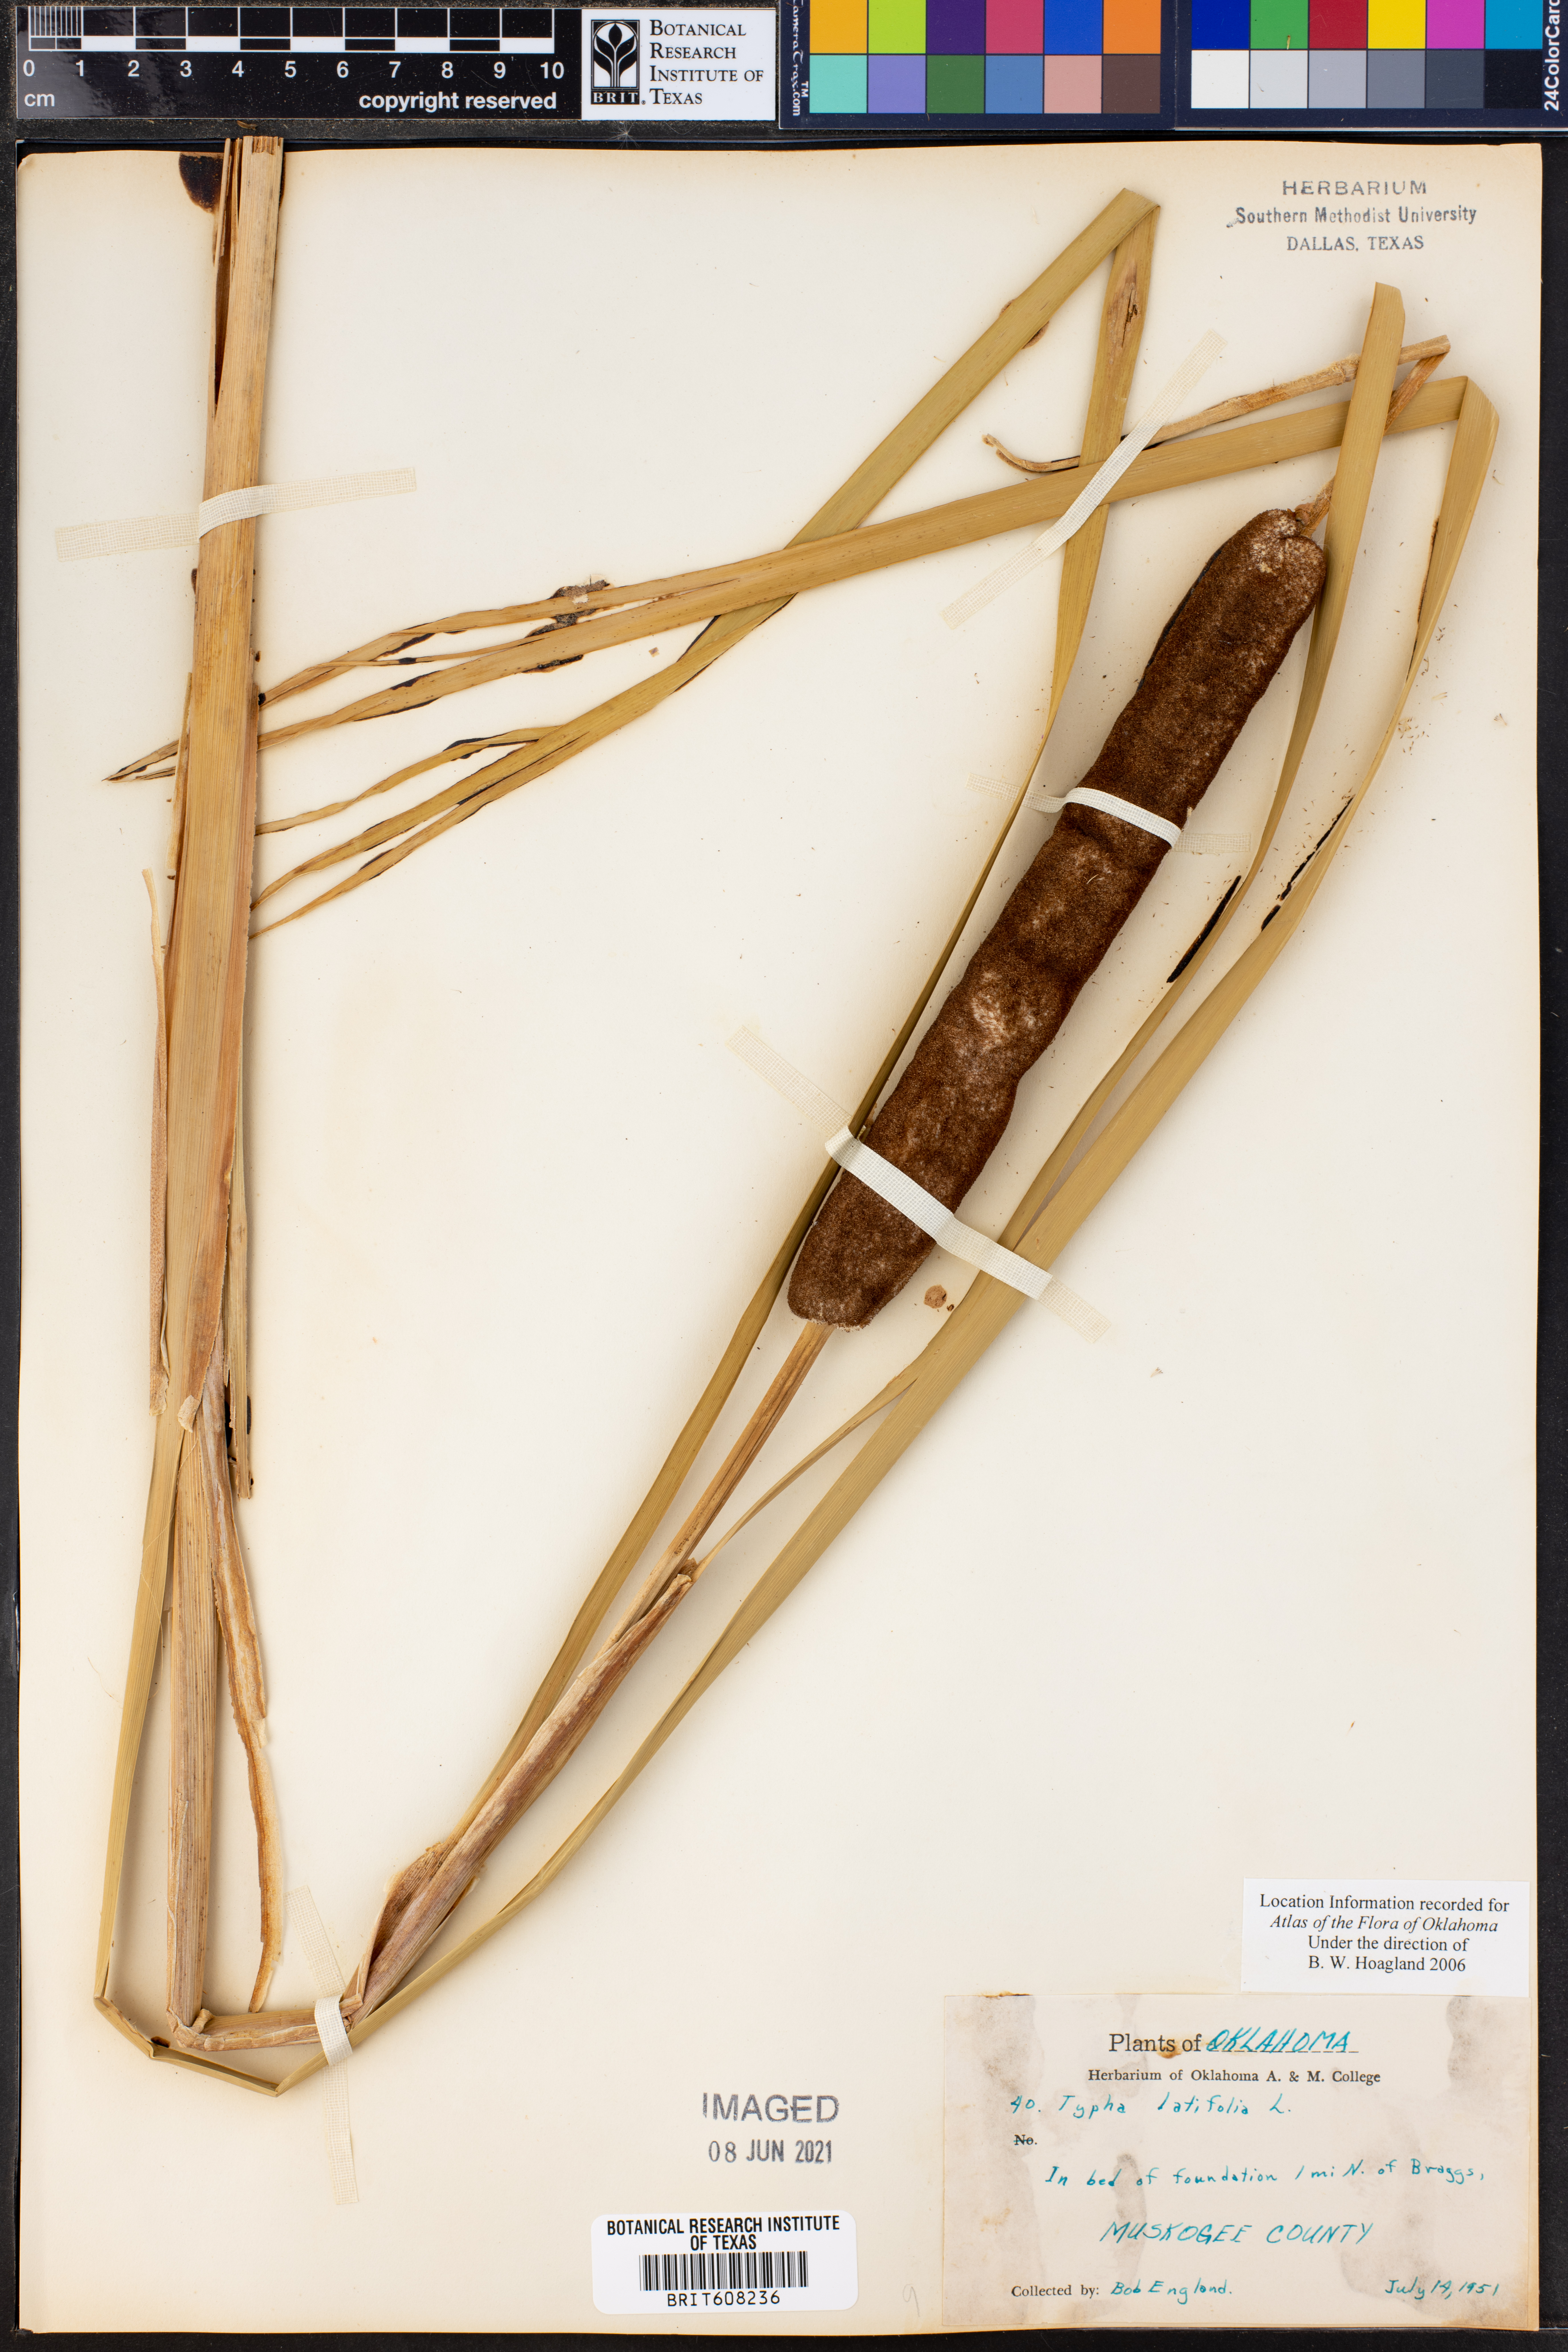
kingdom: Plantae
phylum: Tracheophyta
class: Liliopsida
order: Poales
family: Typhaceae
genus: Typha
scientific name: Typha latifolia
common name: Broadleaf cattail
